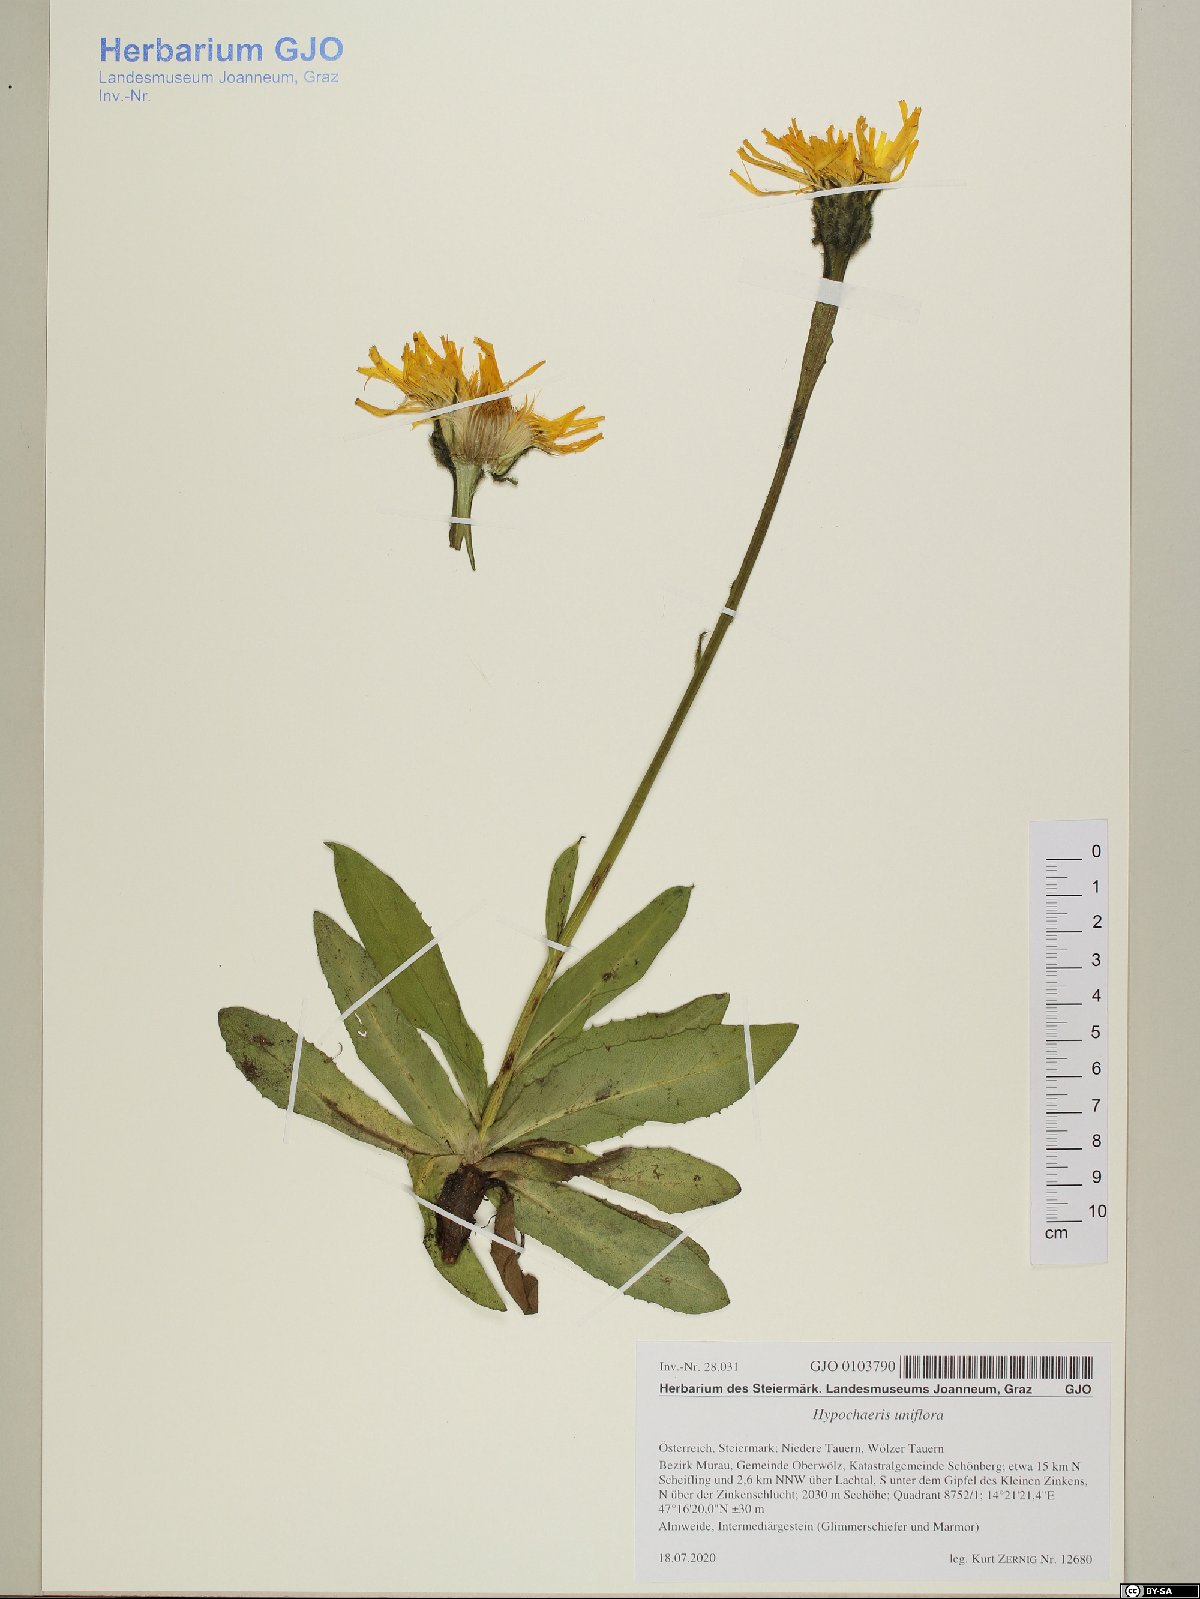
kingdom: Plantae
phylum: Tracheophyta
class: Magnoliopsida
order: Asterales
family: Asteraceae
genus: Trommsdorffia
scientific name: Trommsdorffia uniflora
